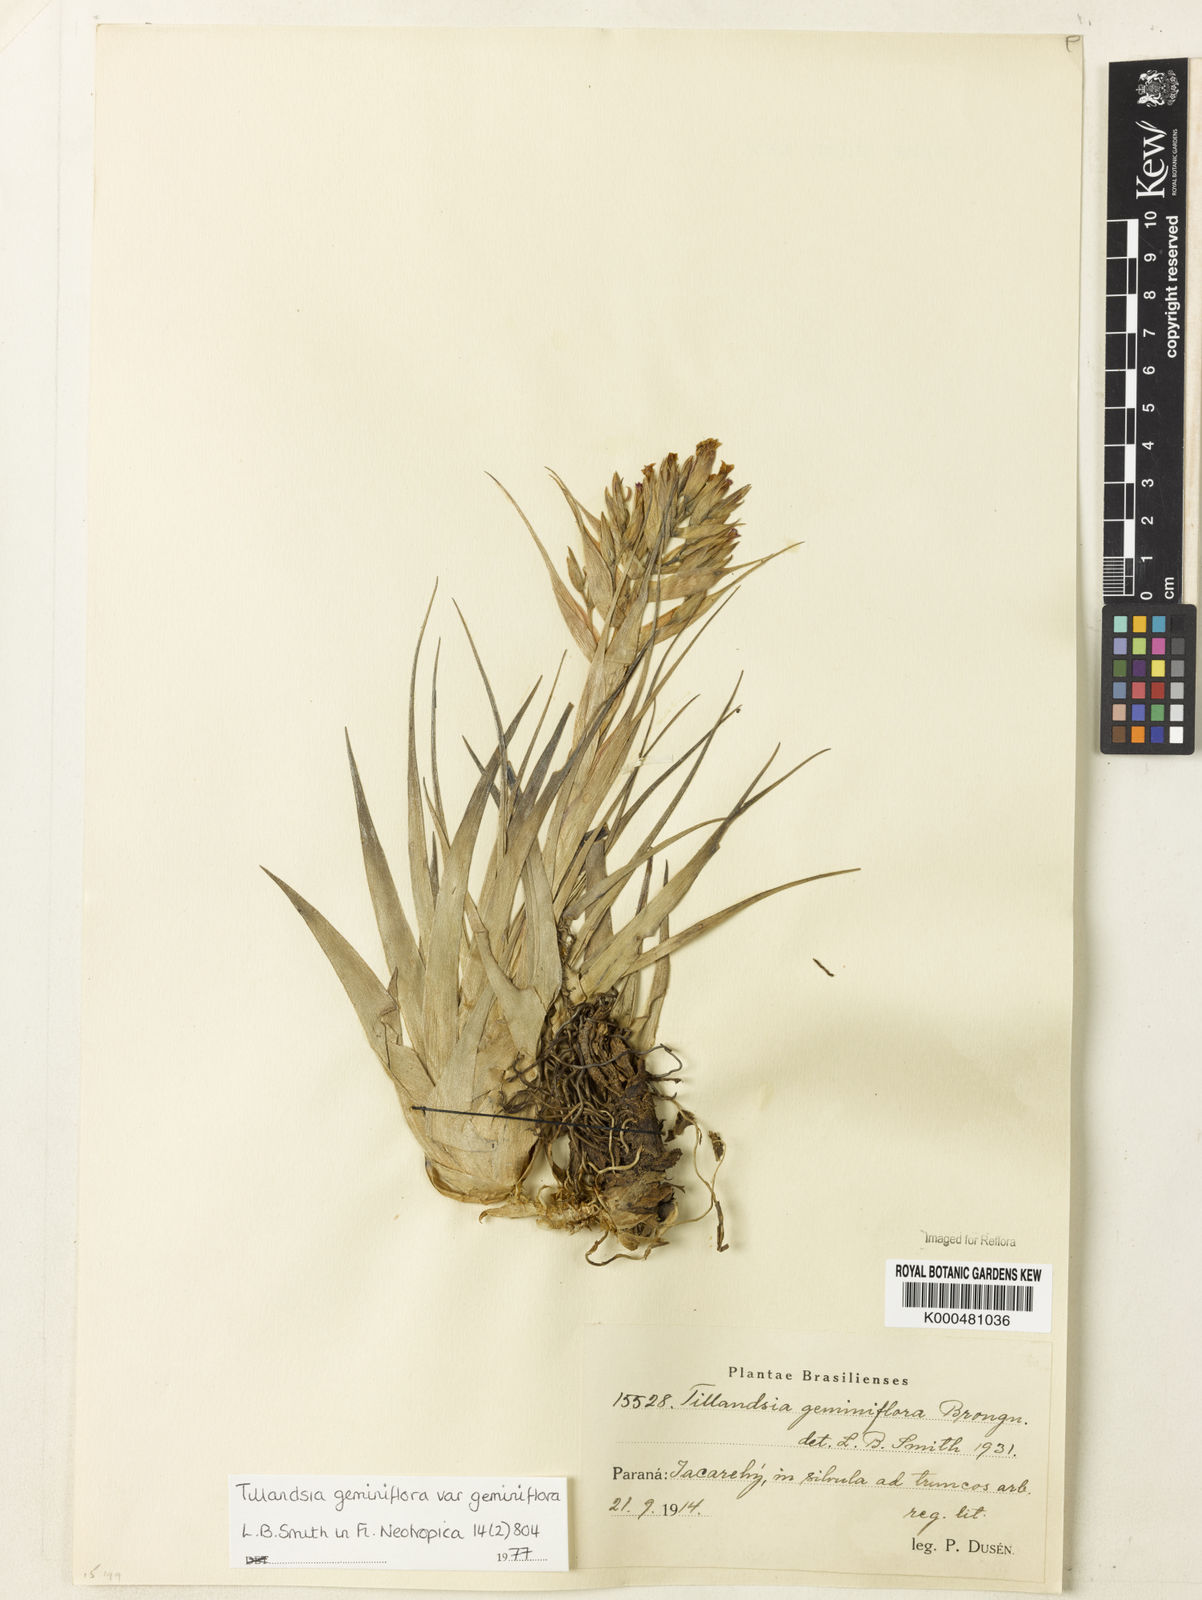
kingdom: Plantae
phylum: Tracheophyta
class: Liliopsida
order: Poales
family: Bromeliaceae
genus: Tillandsia
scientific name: Tillandsia geminiflora
